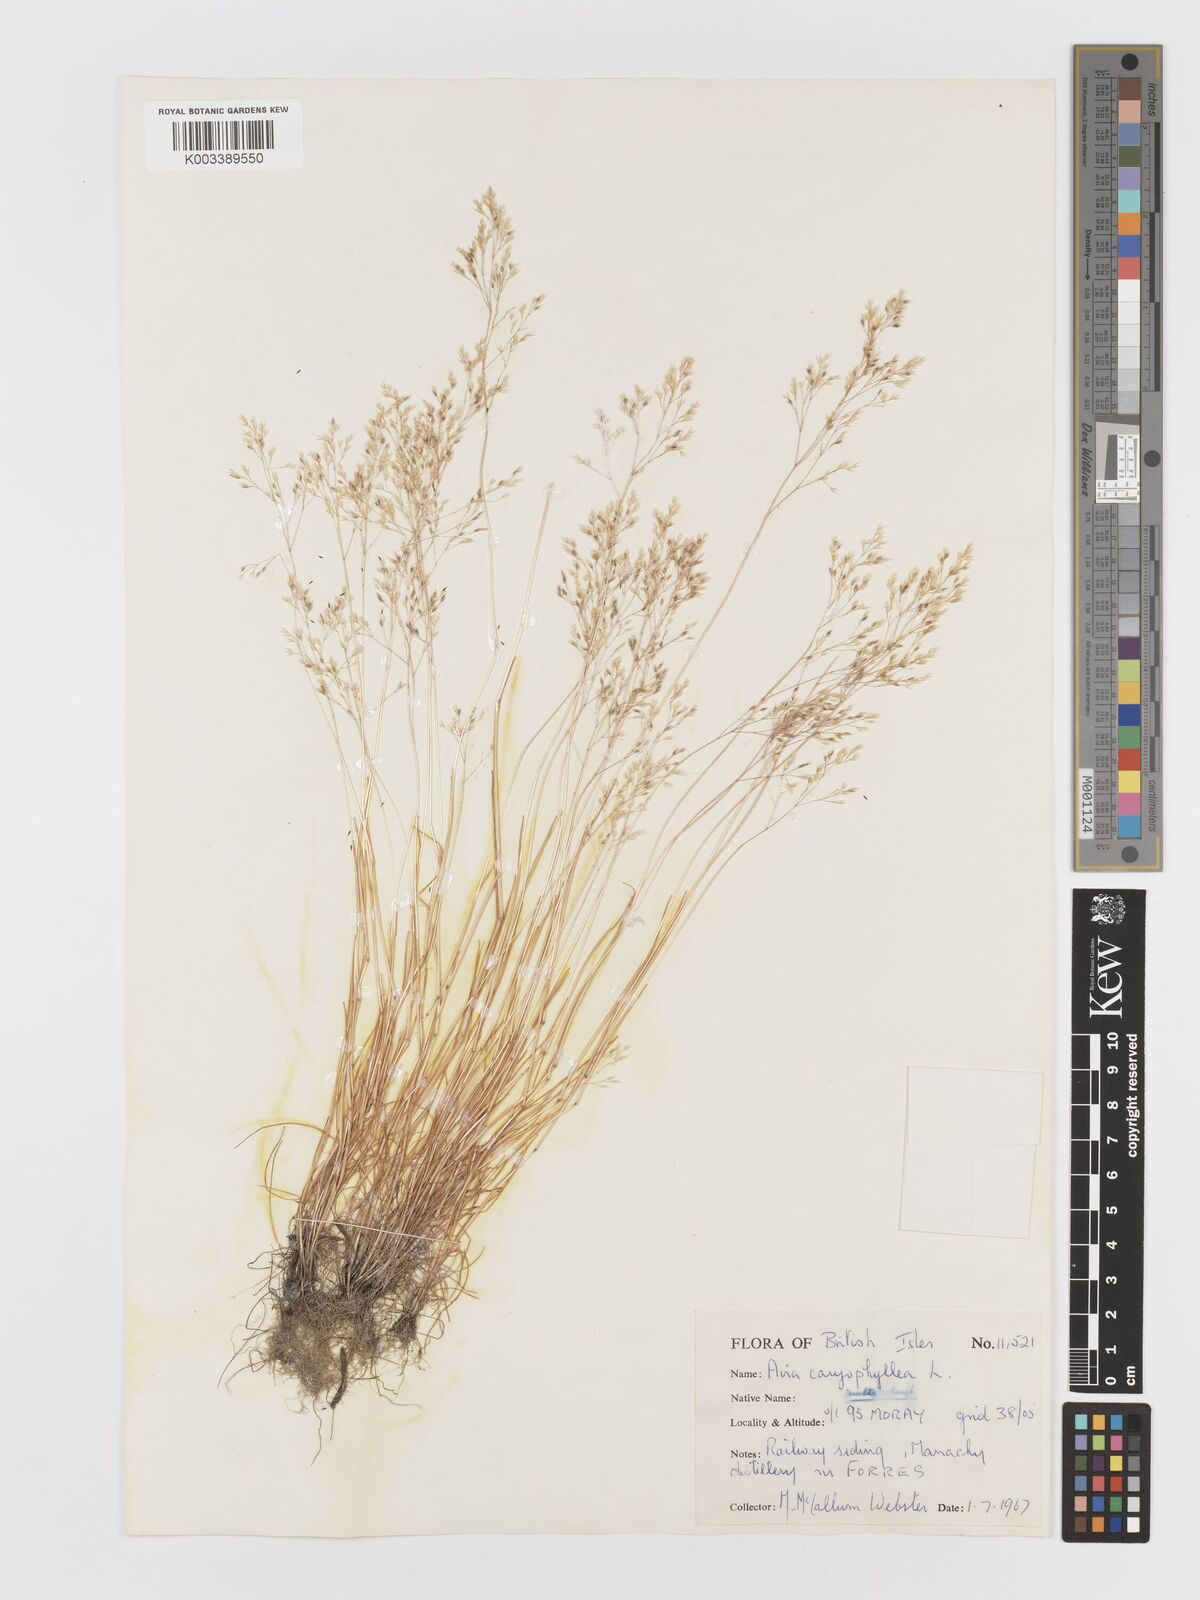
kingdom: Plantae
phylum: Tracheophyta
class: Liliopsida
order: Poales
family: Poaceae
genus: Aira
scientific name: Aira caryophyllea
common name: Silver hairgrass
